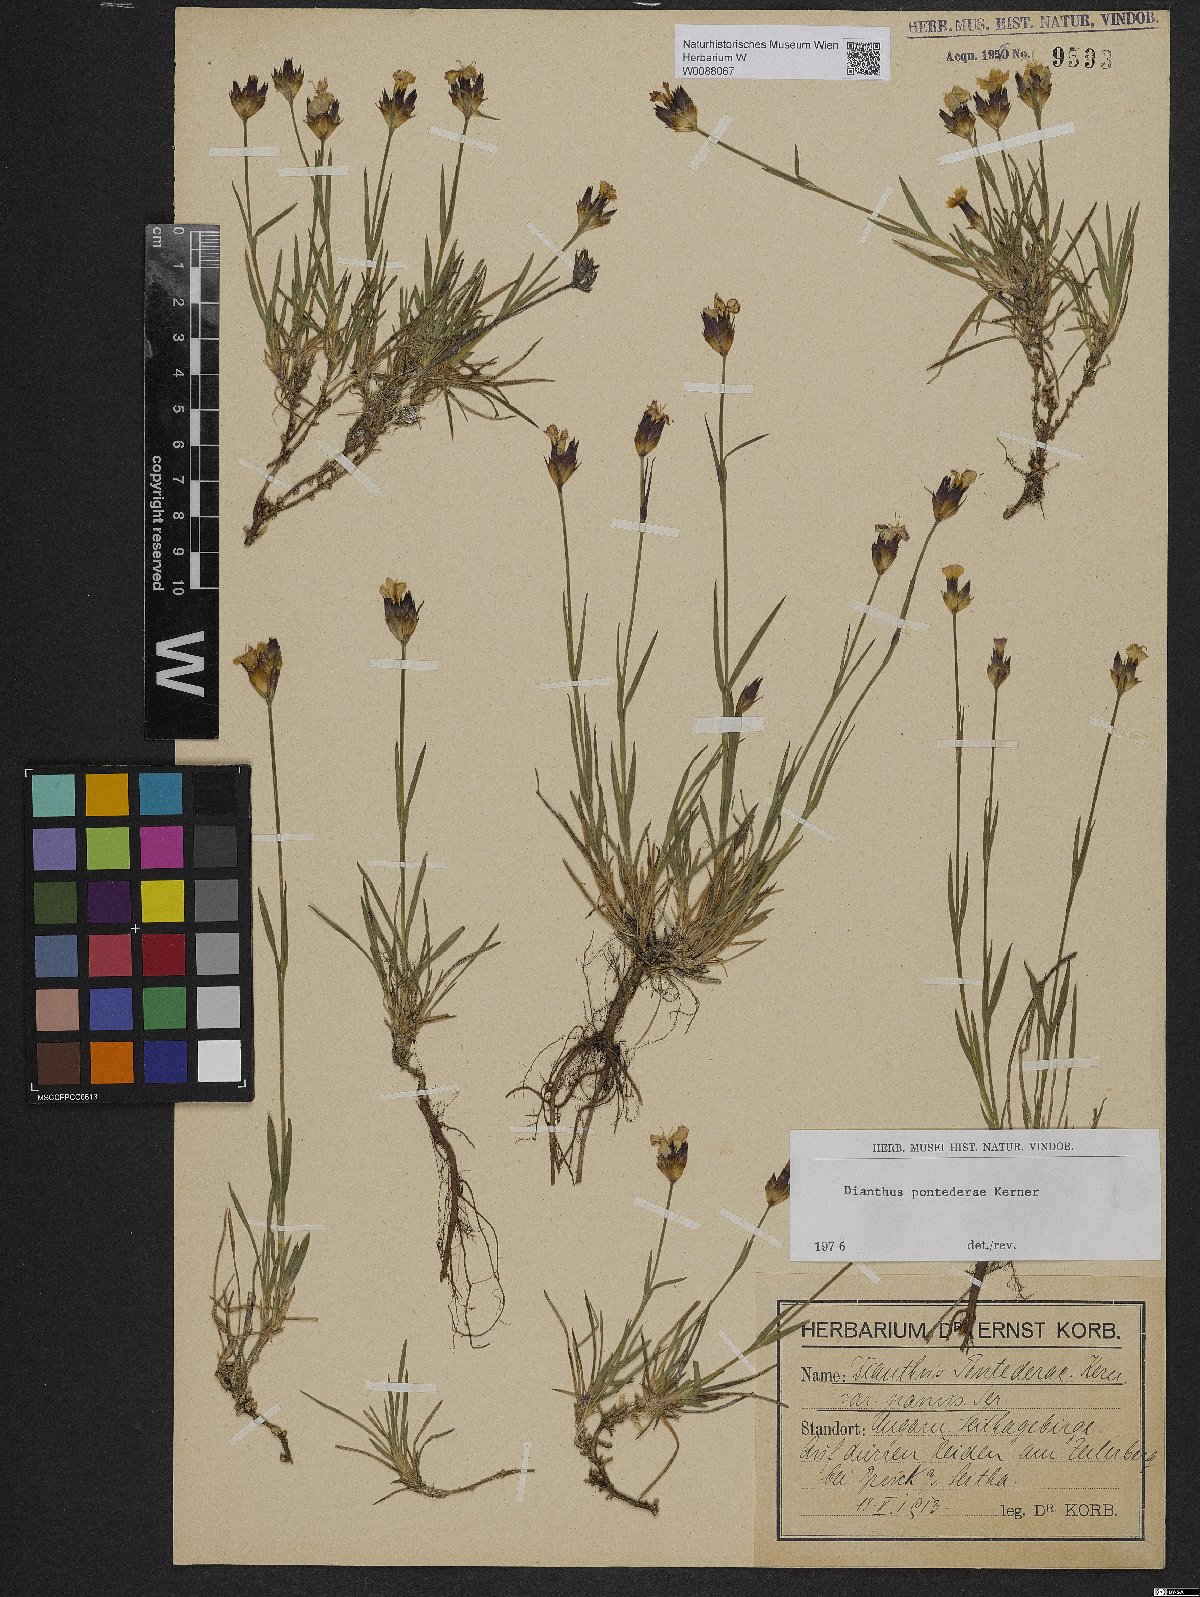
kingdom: Plantae
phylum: Tracheophyta
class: Magnoliopsida
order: Caryophyllales
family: Caryophyllaceae
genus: Dianthus
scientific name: Dianthus pontederae
